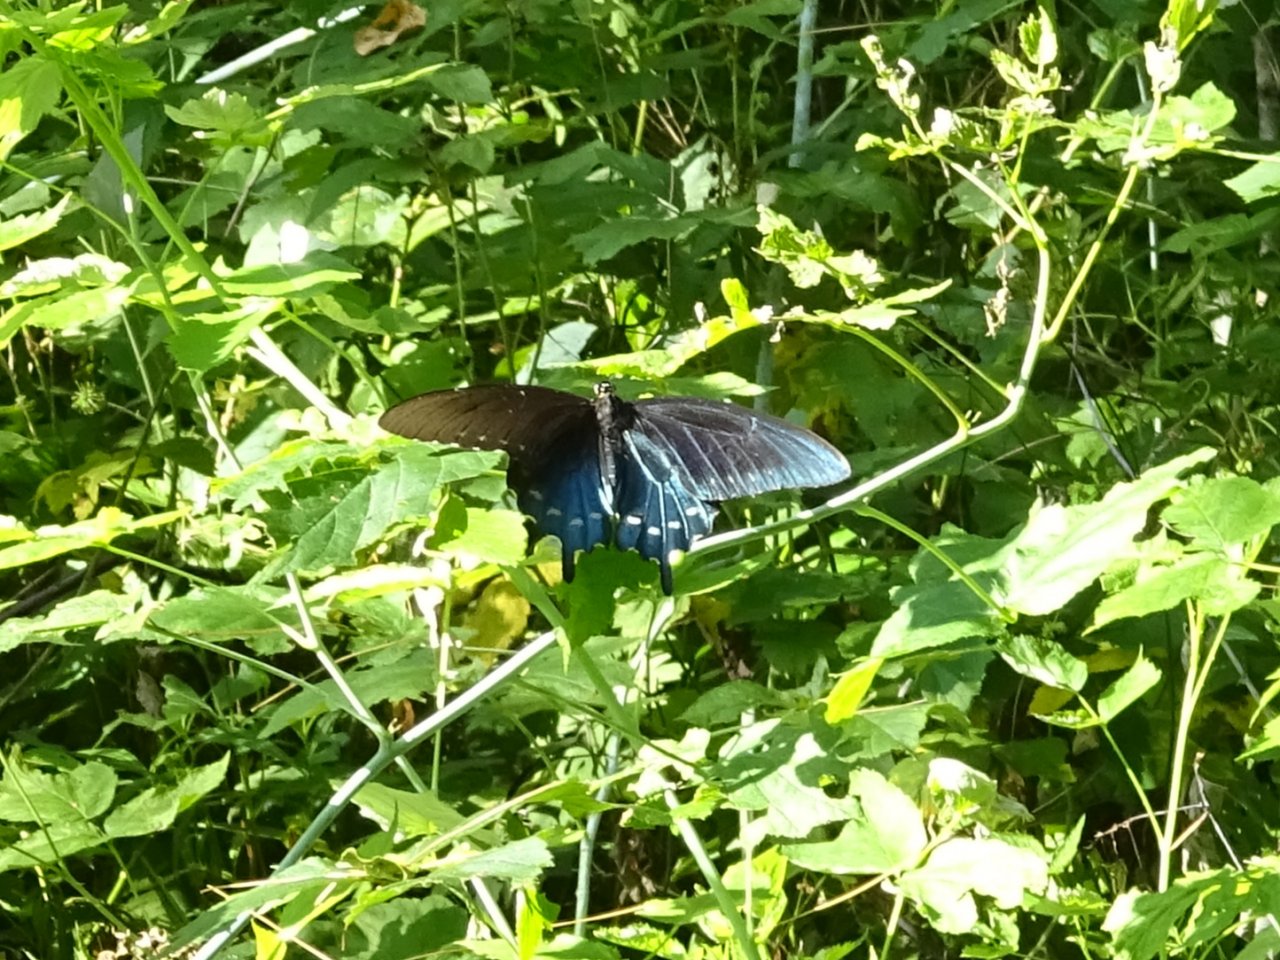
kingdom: Animalia
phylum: Arthropoda
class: Insecta
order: Lepidoptera
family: Papilionidae
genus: Battus
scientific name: Battus philenor
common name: Pipevine Swallowtail
